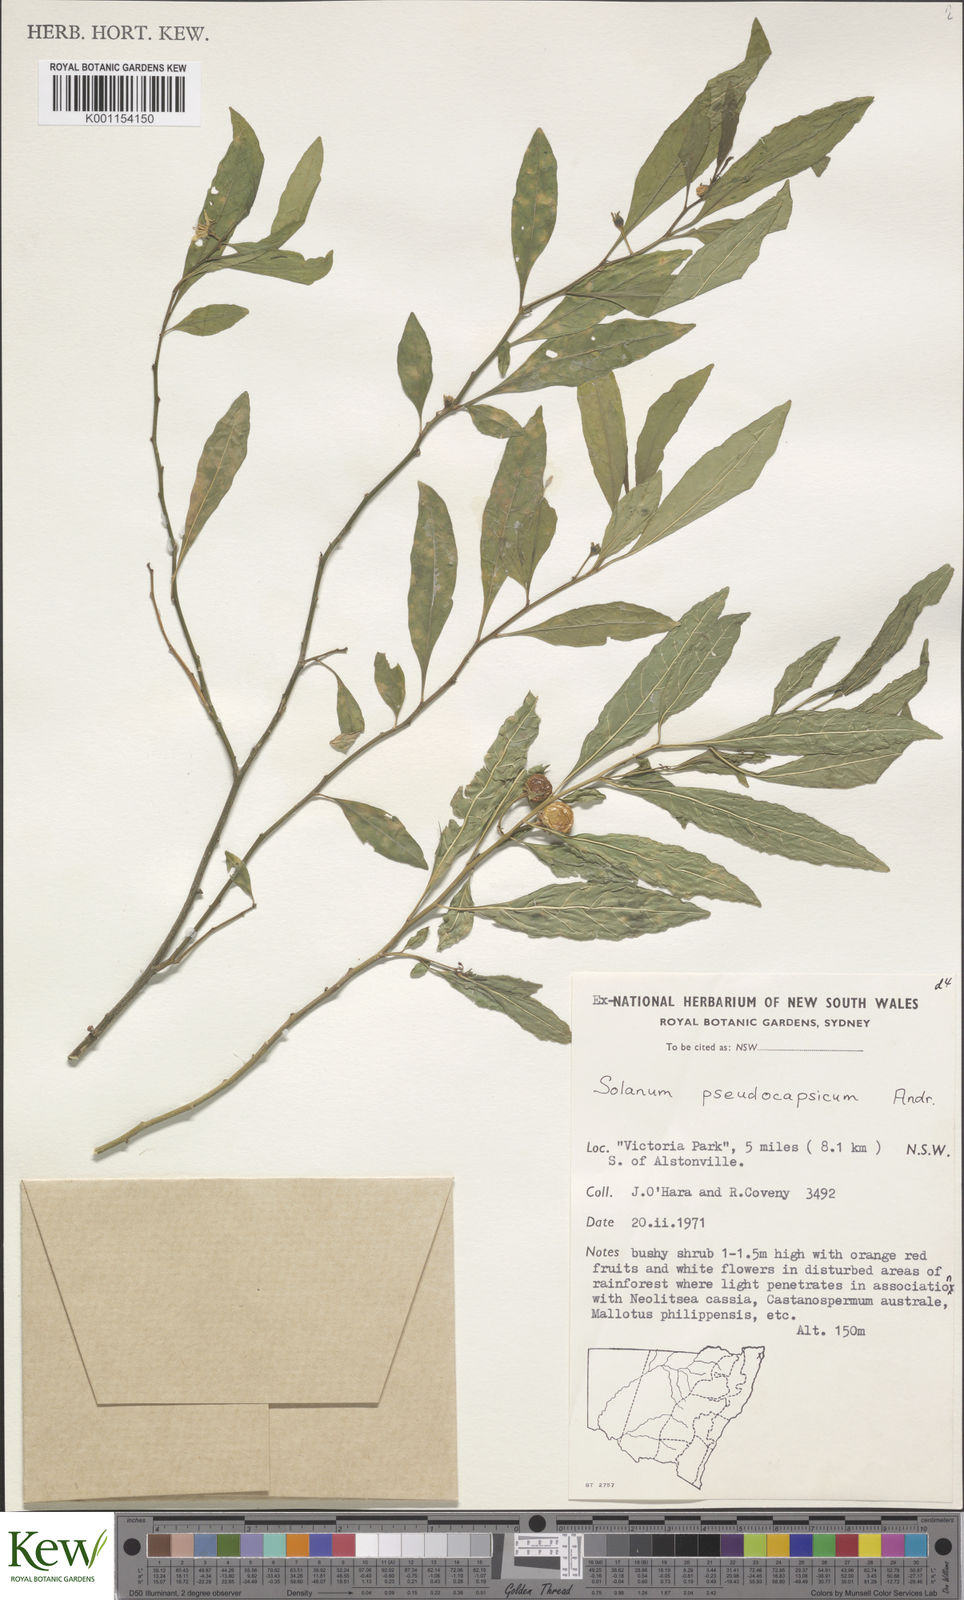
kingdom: Plantae
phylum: Tracheophyta
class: Magnoliopsida
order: Solanales
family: Solanaceae
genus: Solanum
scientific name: Solanum pseudocapsicum
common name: Jerusalem cherry
